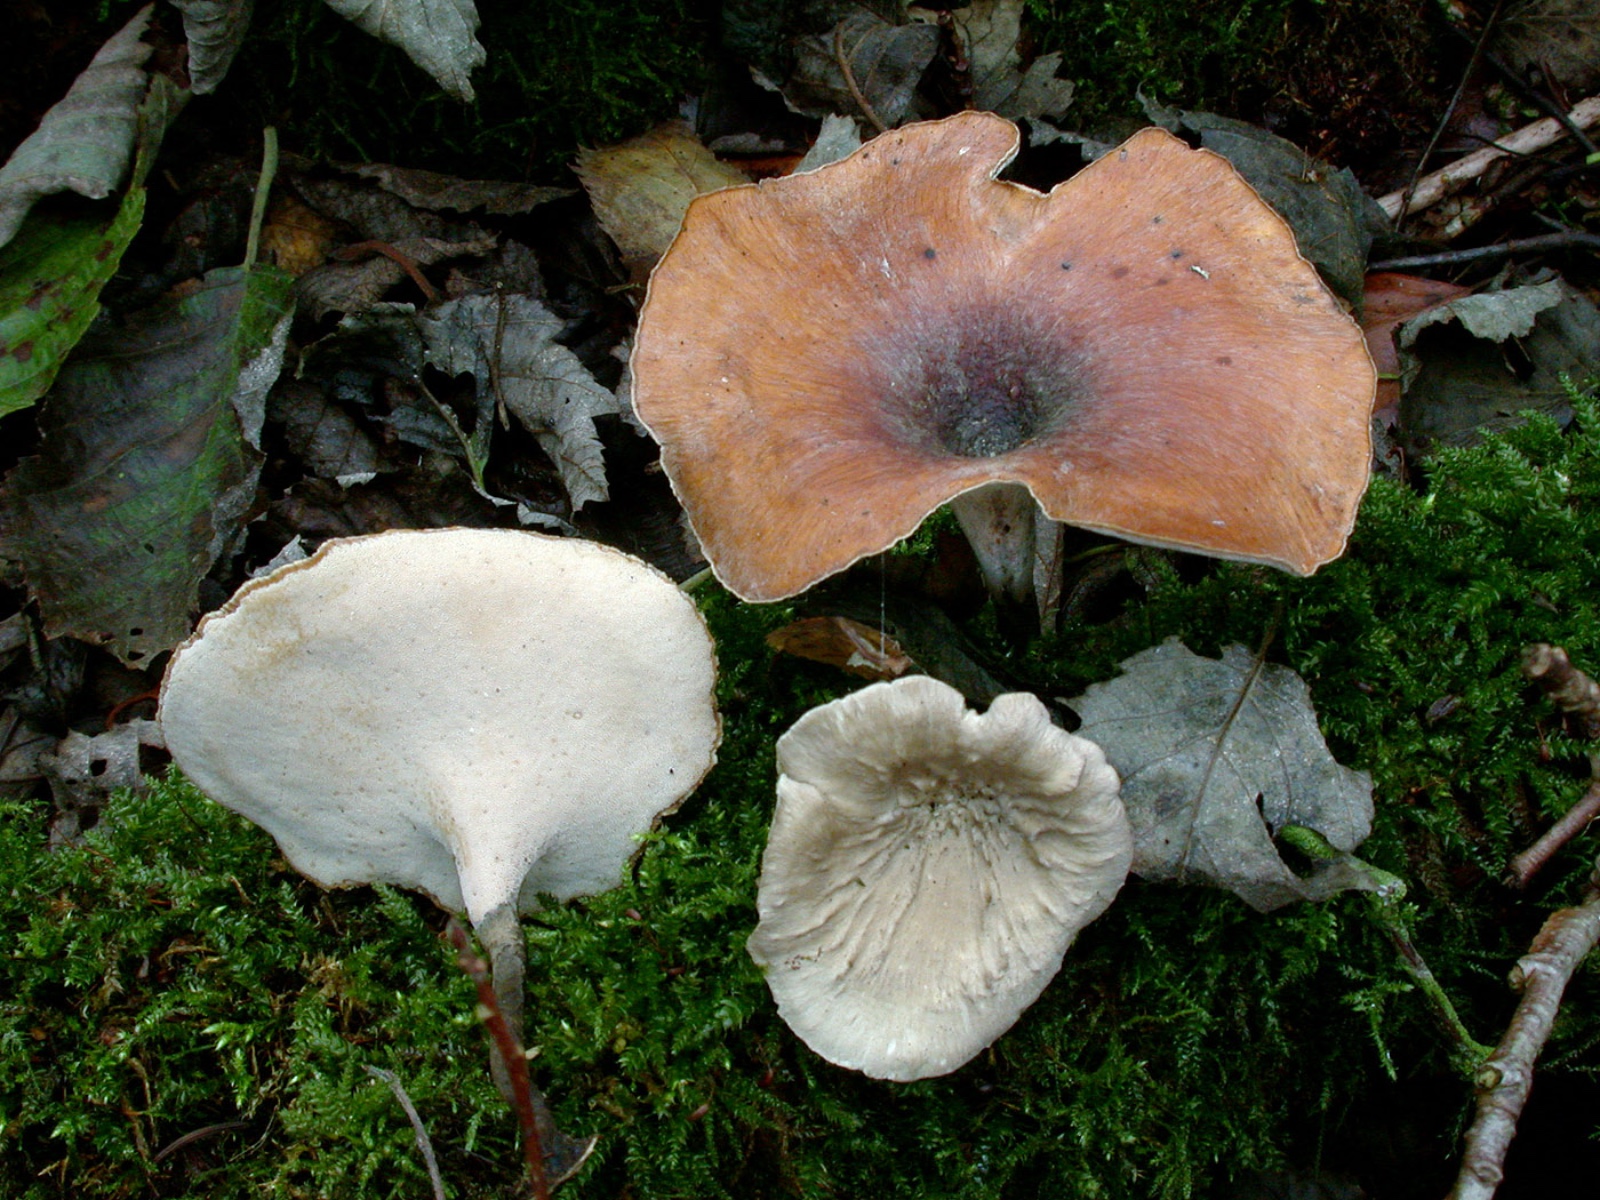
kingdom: Fungi
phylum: Basidiomycota
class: Agaricomycetes
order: Polyporales
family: Polyporaceae
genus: Picipes
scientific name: Picipes tubaeformis
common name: trompet-stilkporesvamp
